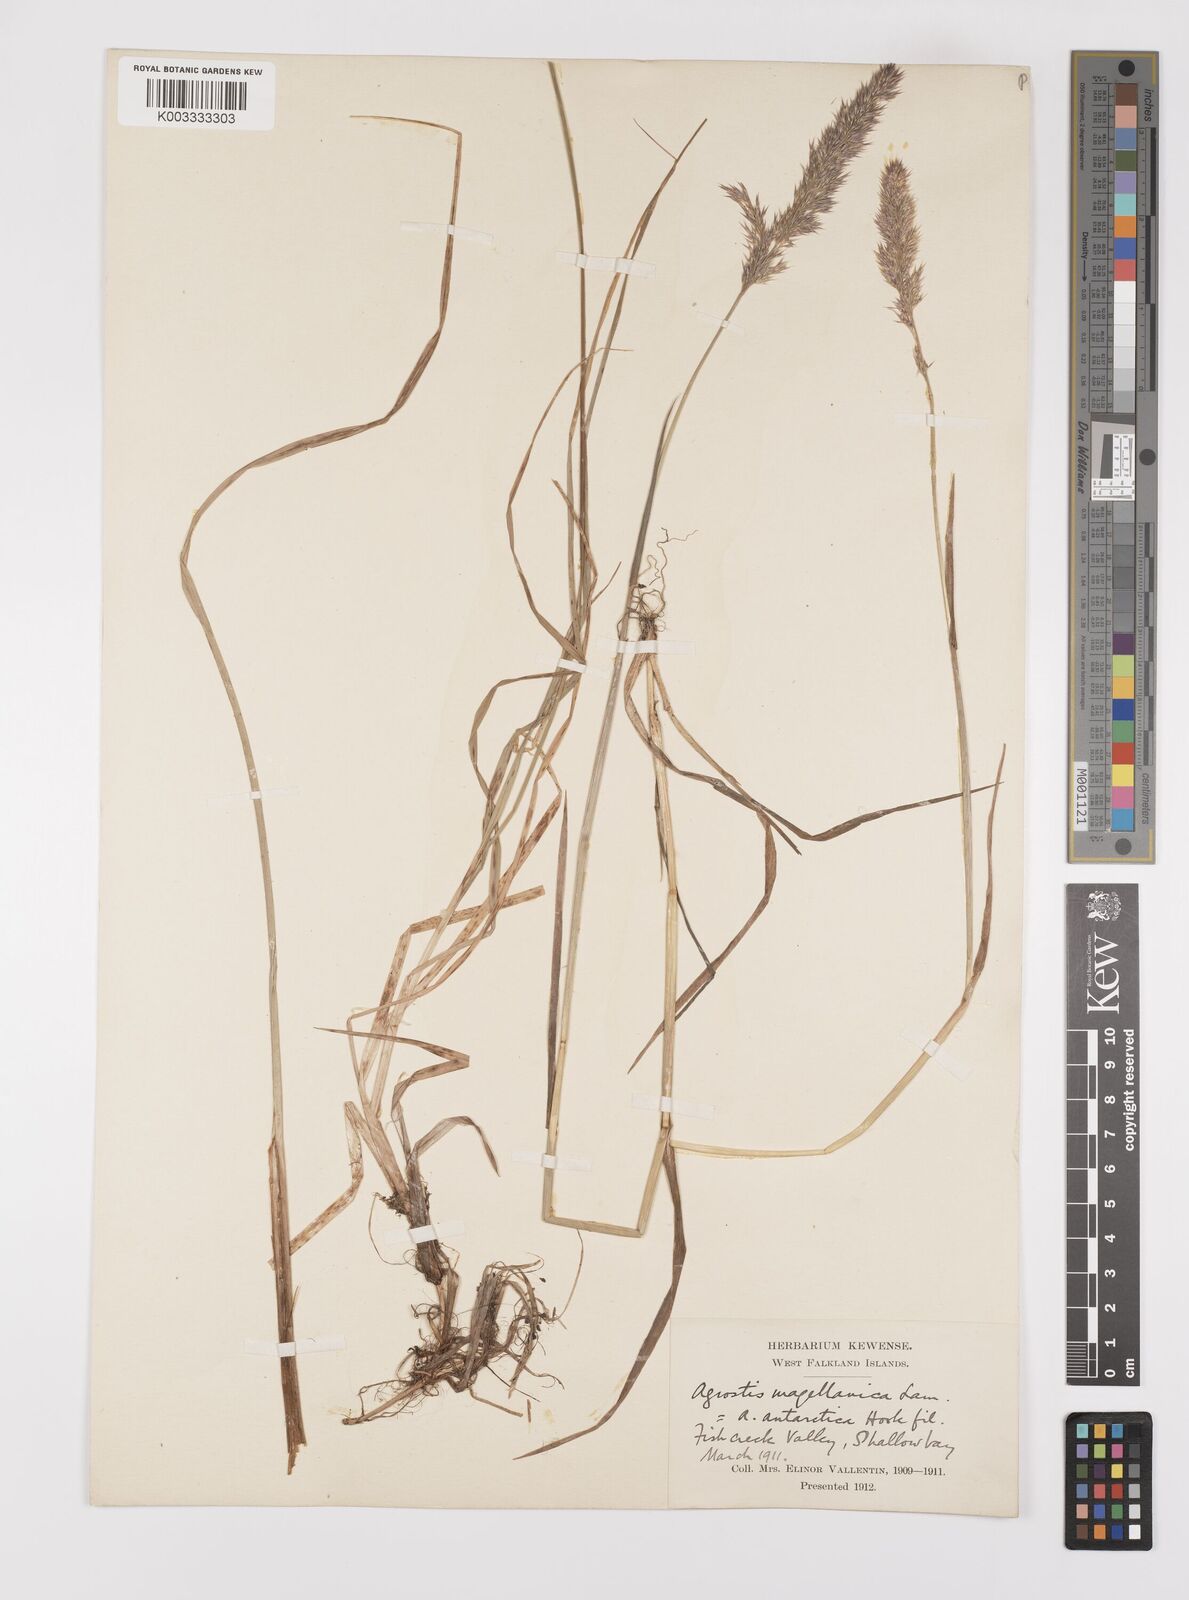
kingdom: Plantae
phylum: Tracheophyta
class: Liliopsida
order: Poales
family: Poaceae
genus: Polypogon
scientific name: Polypogon magellanicus
